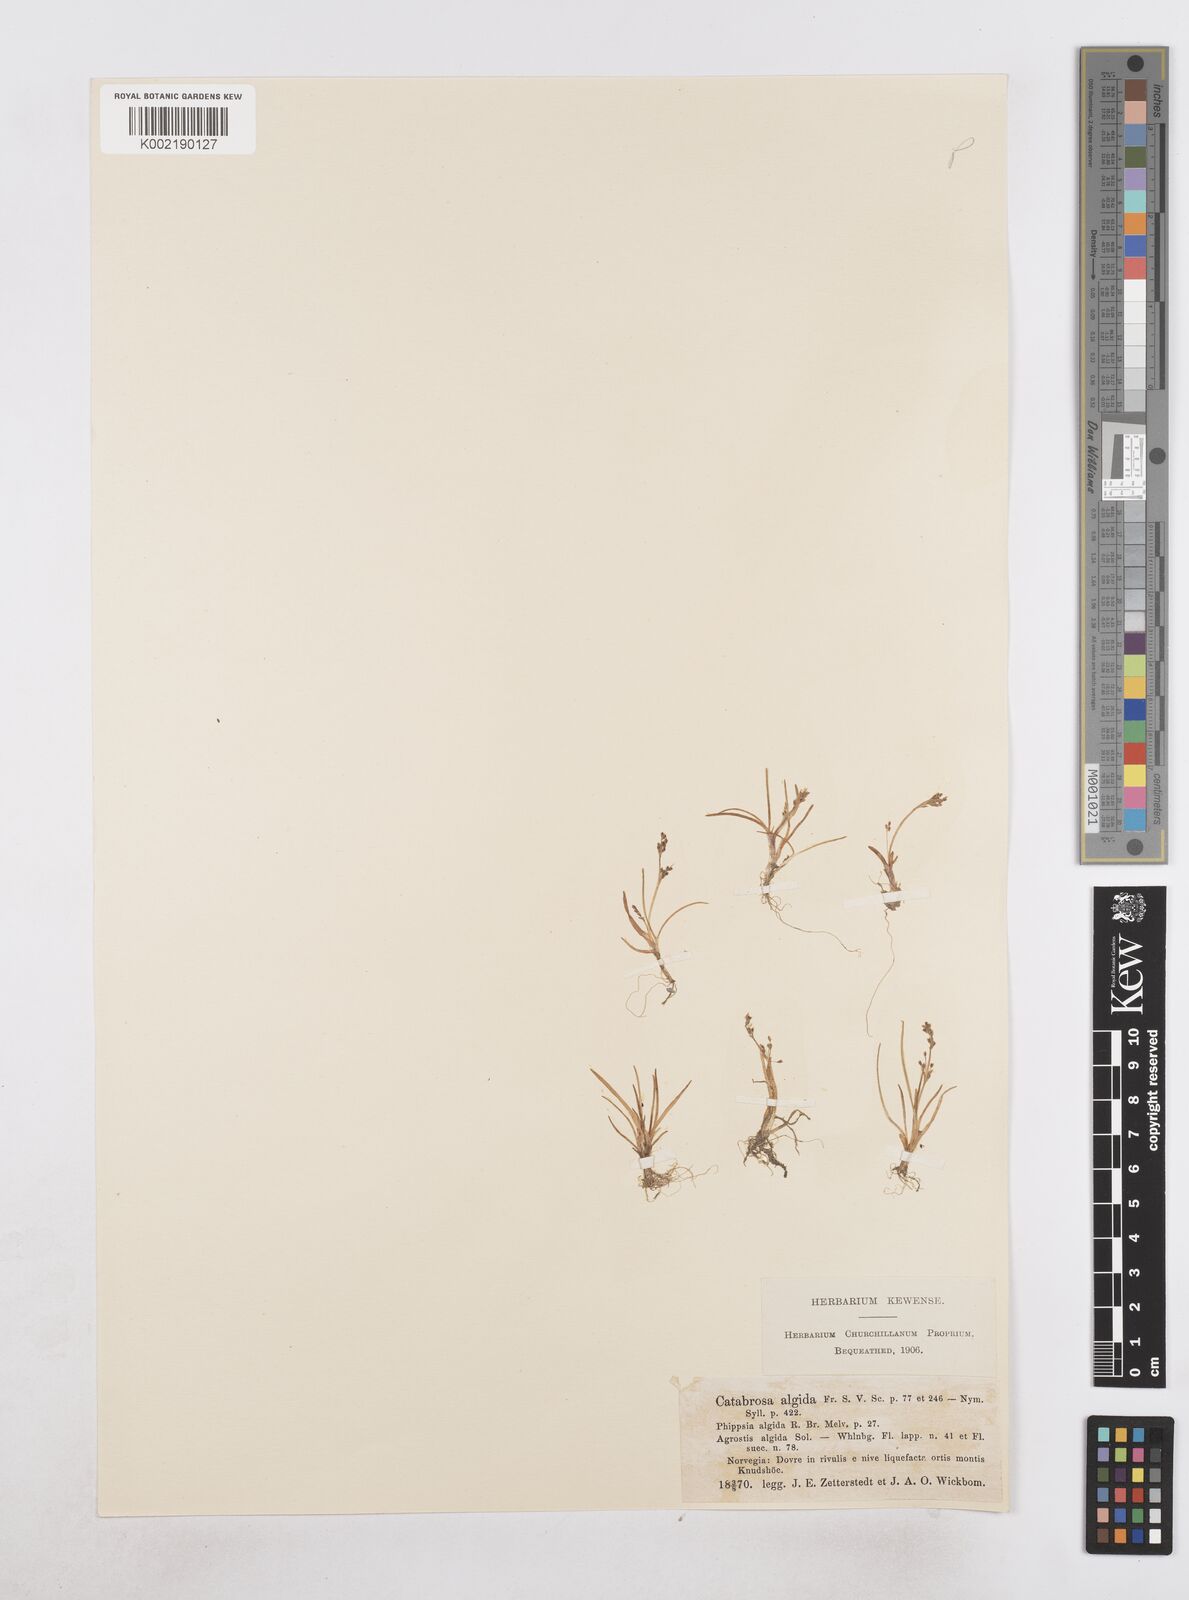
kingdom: Plantae
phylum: Tracheophyta
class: Liliopsida
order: Poales
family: Poaceae
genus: Phippsia
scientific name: Phippsia algida
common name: Ice grass
